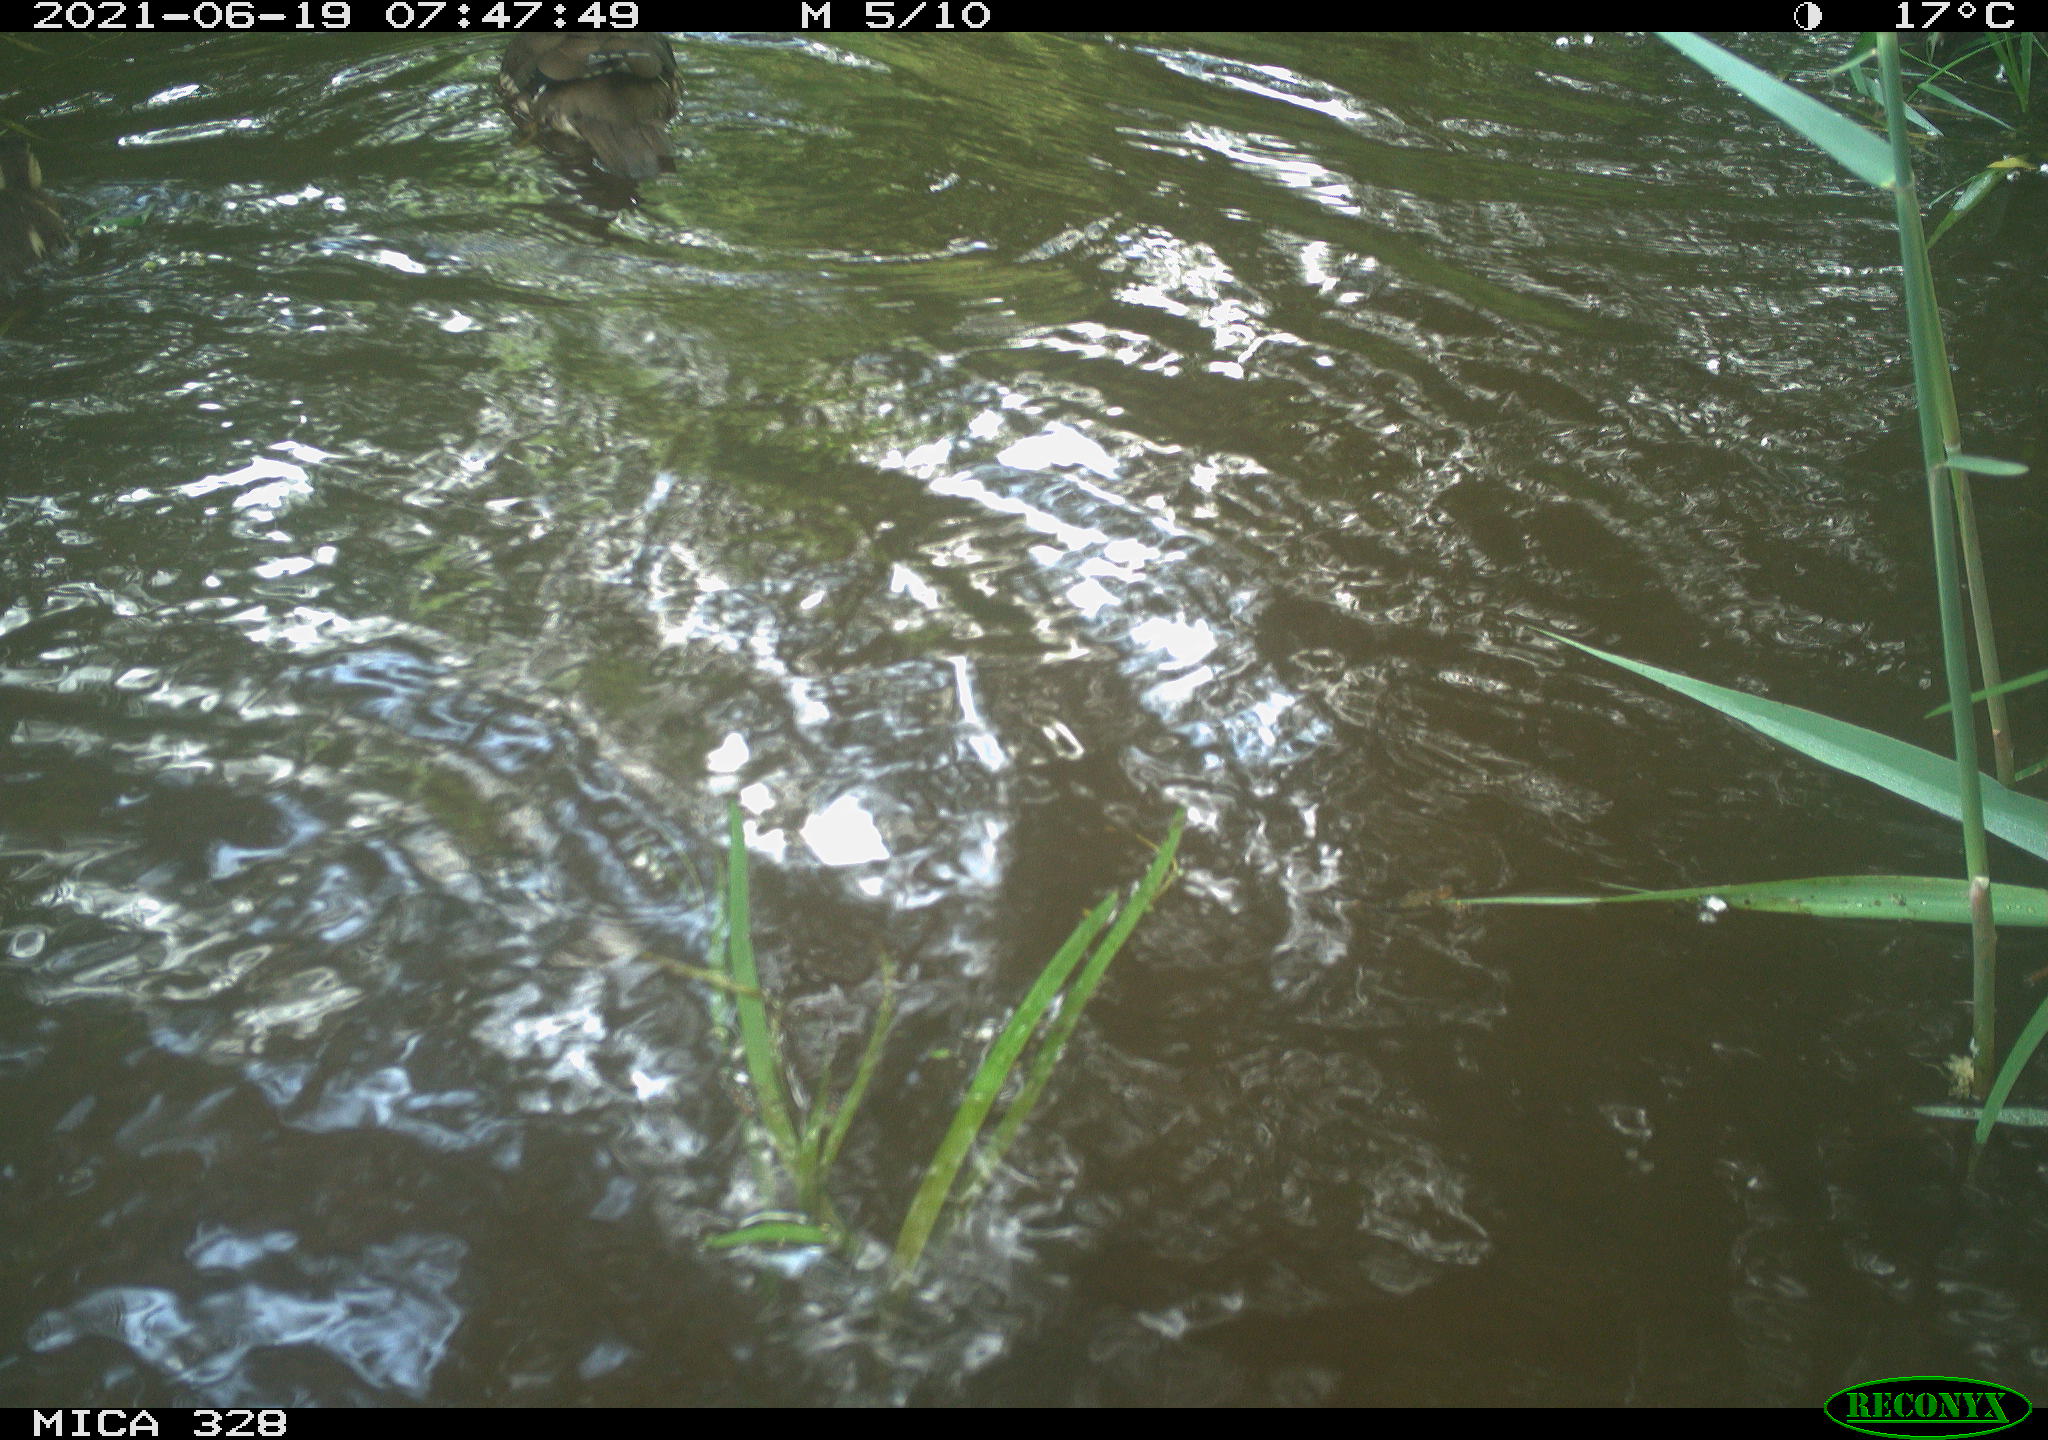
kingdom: Animalia
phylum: Chordata
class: Aves
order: Anseriformes
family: Anatidae
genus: Aix
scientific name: Aix galericulata
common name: Mandarin duck
